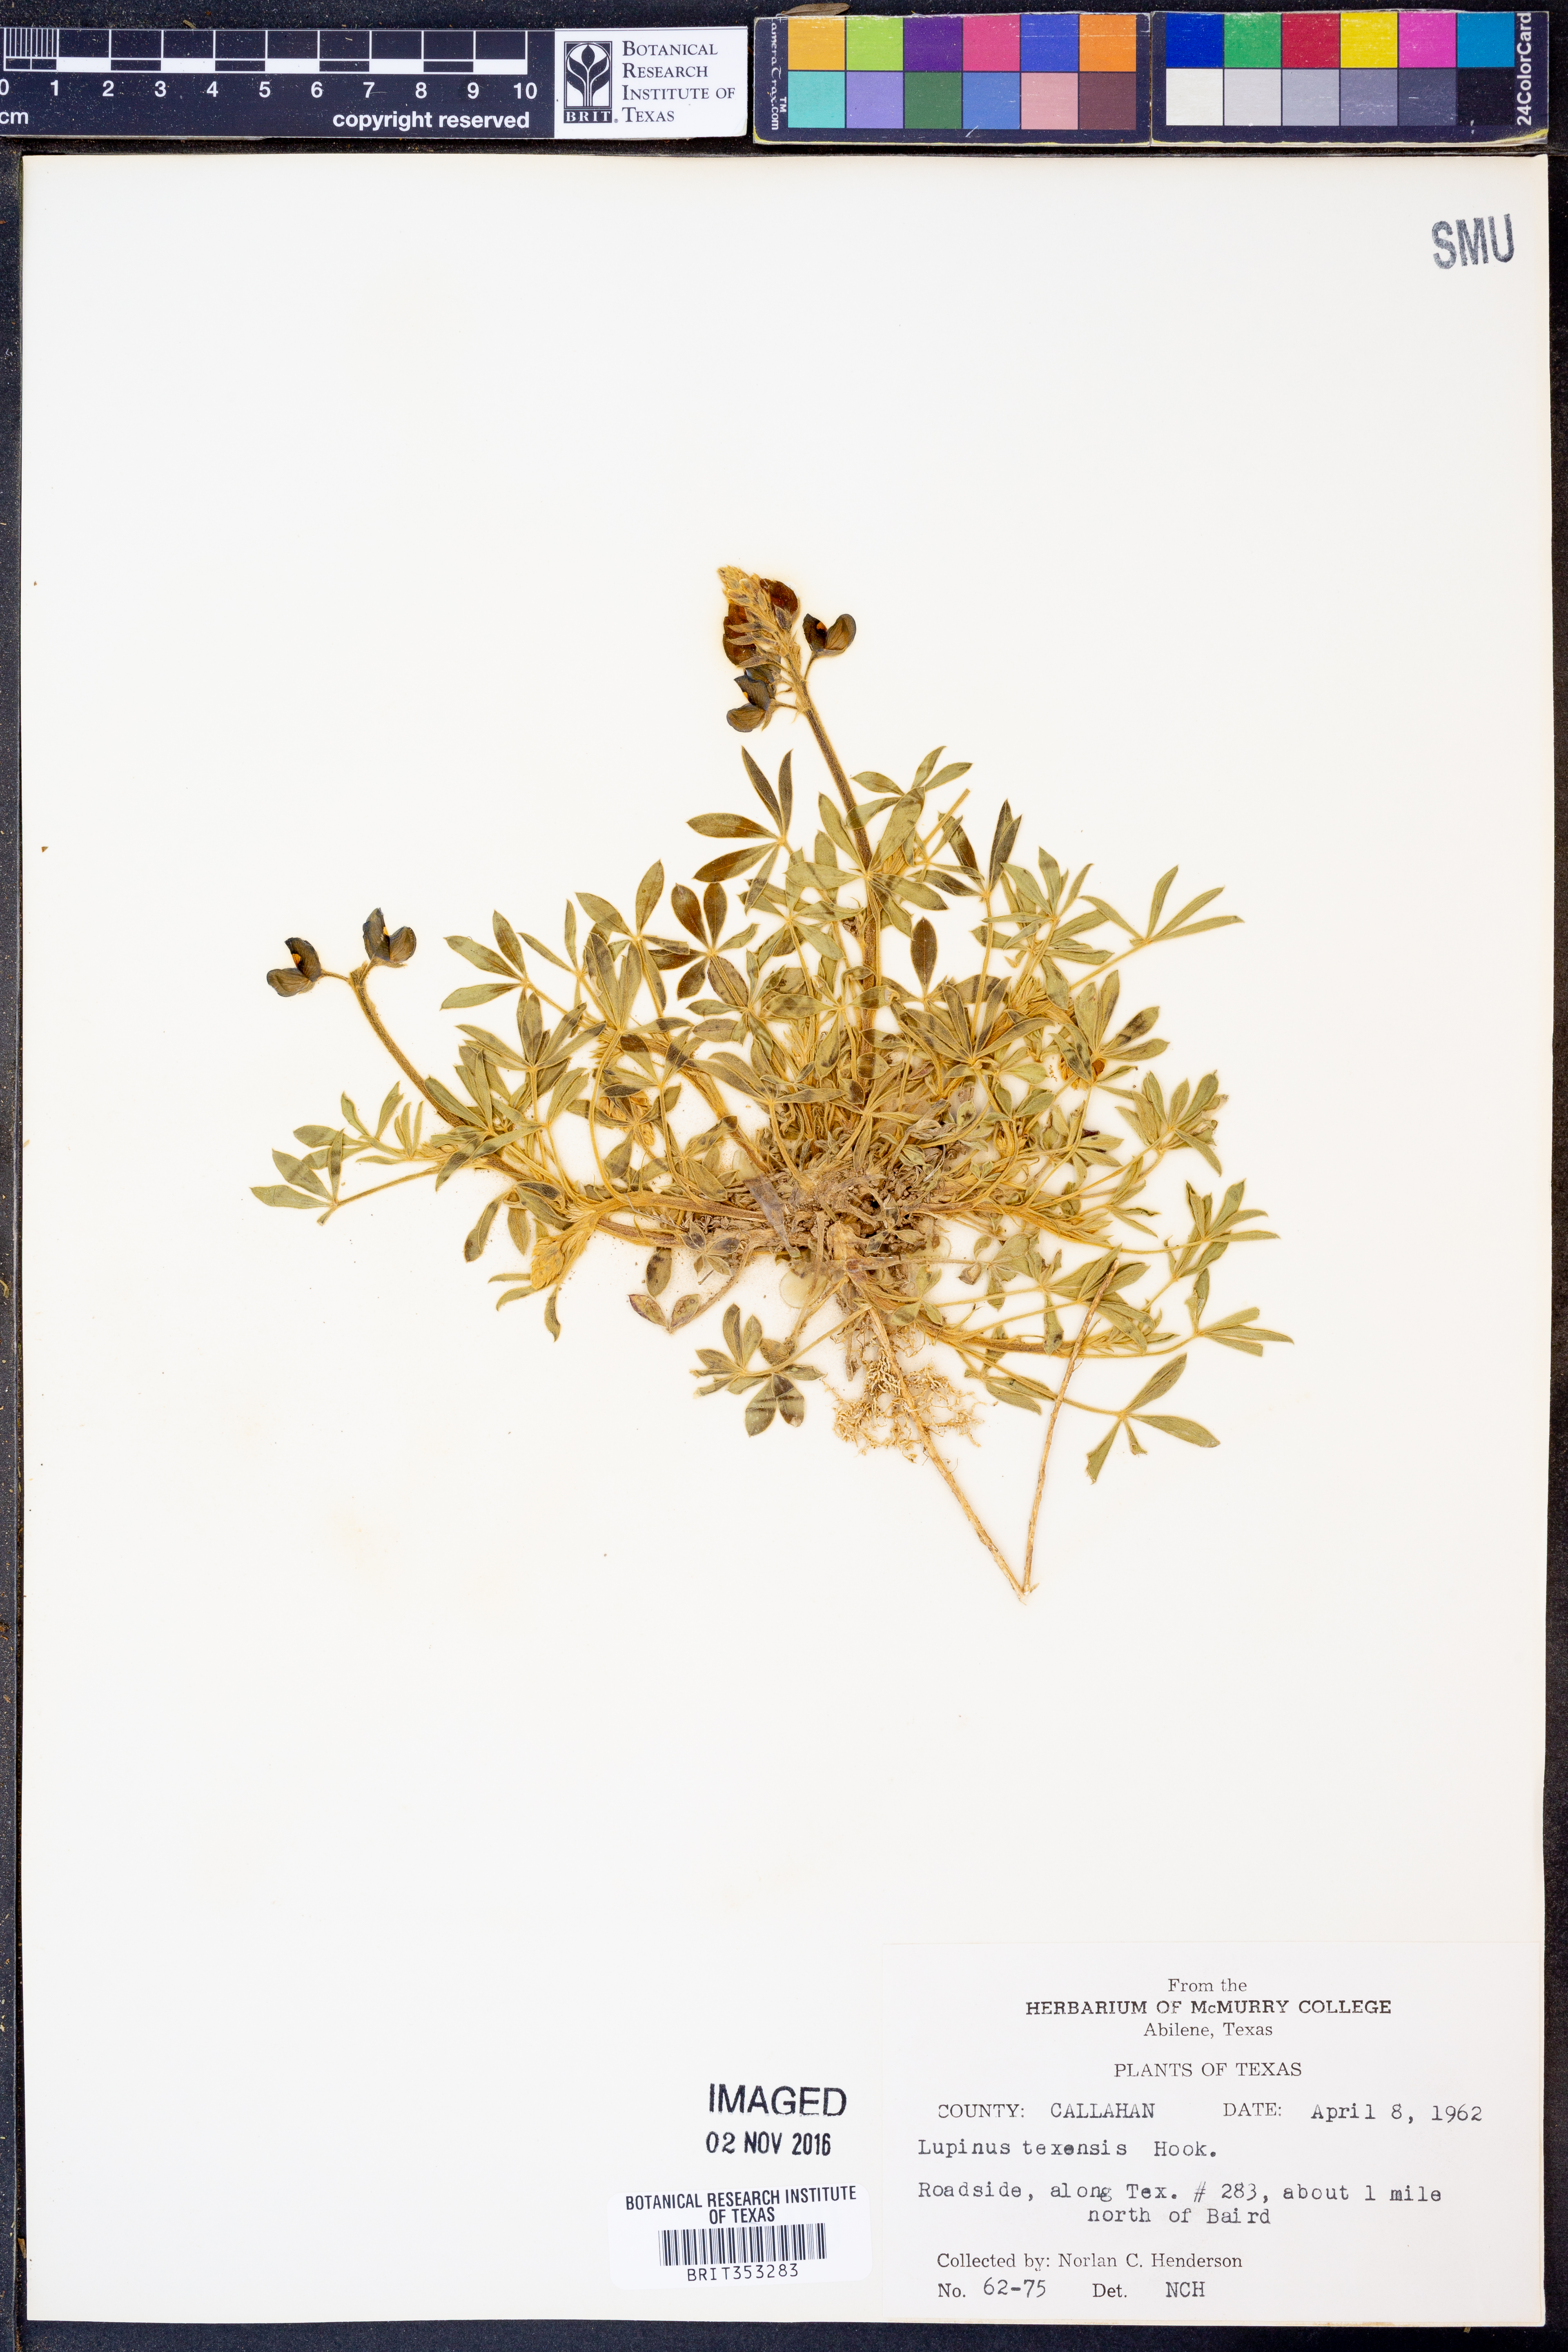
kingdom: Plantae
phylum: Tracheophyta
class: Magnoliopsida
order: Fabales
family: Fabaceae
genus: Lupinus
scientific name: Lupinus texensis
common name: Texas bluebonnet
